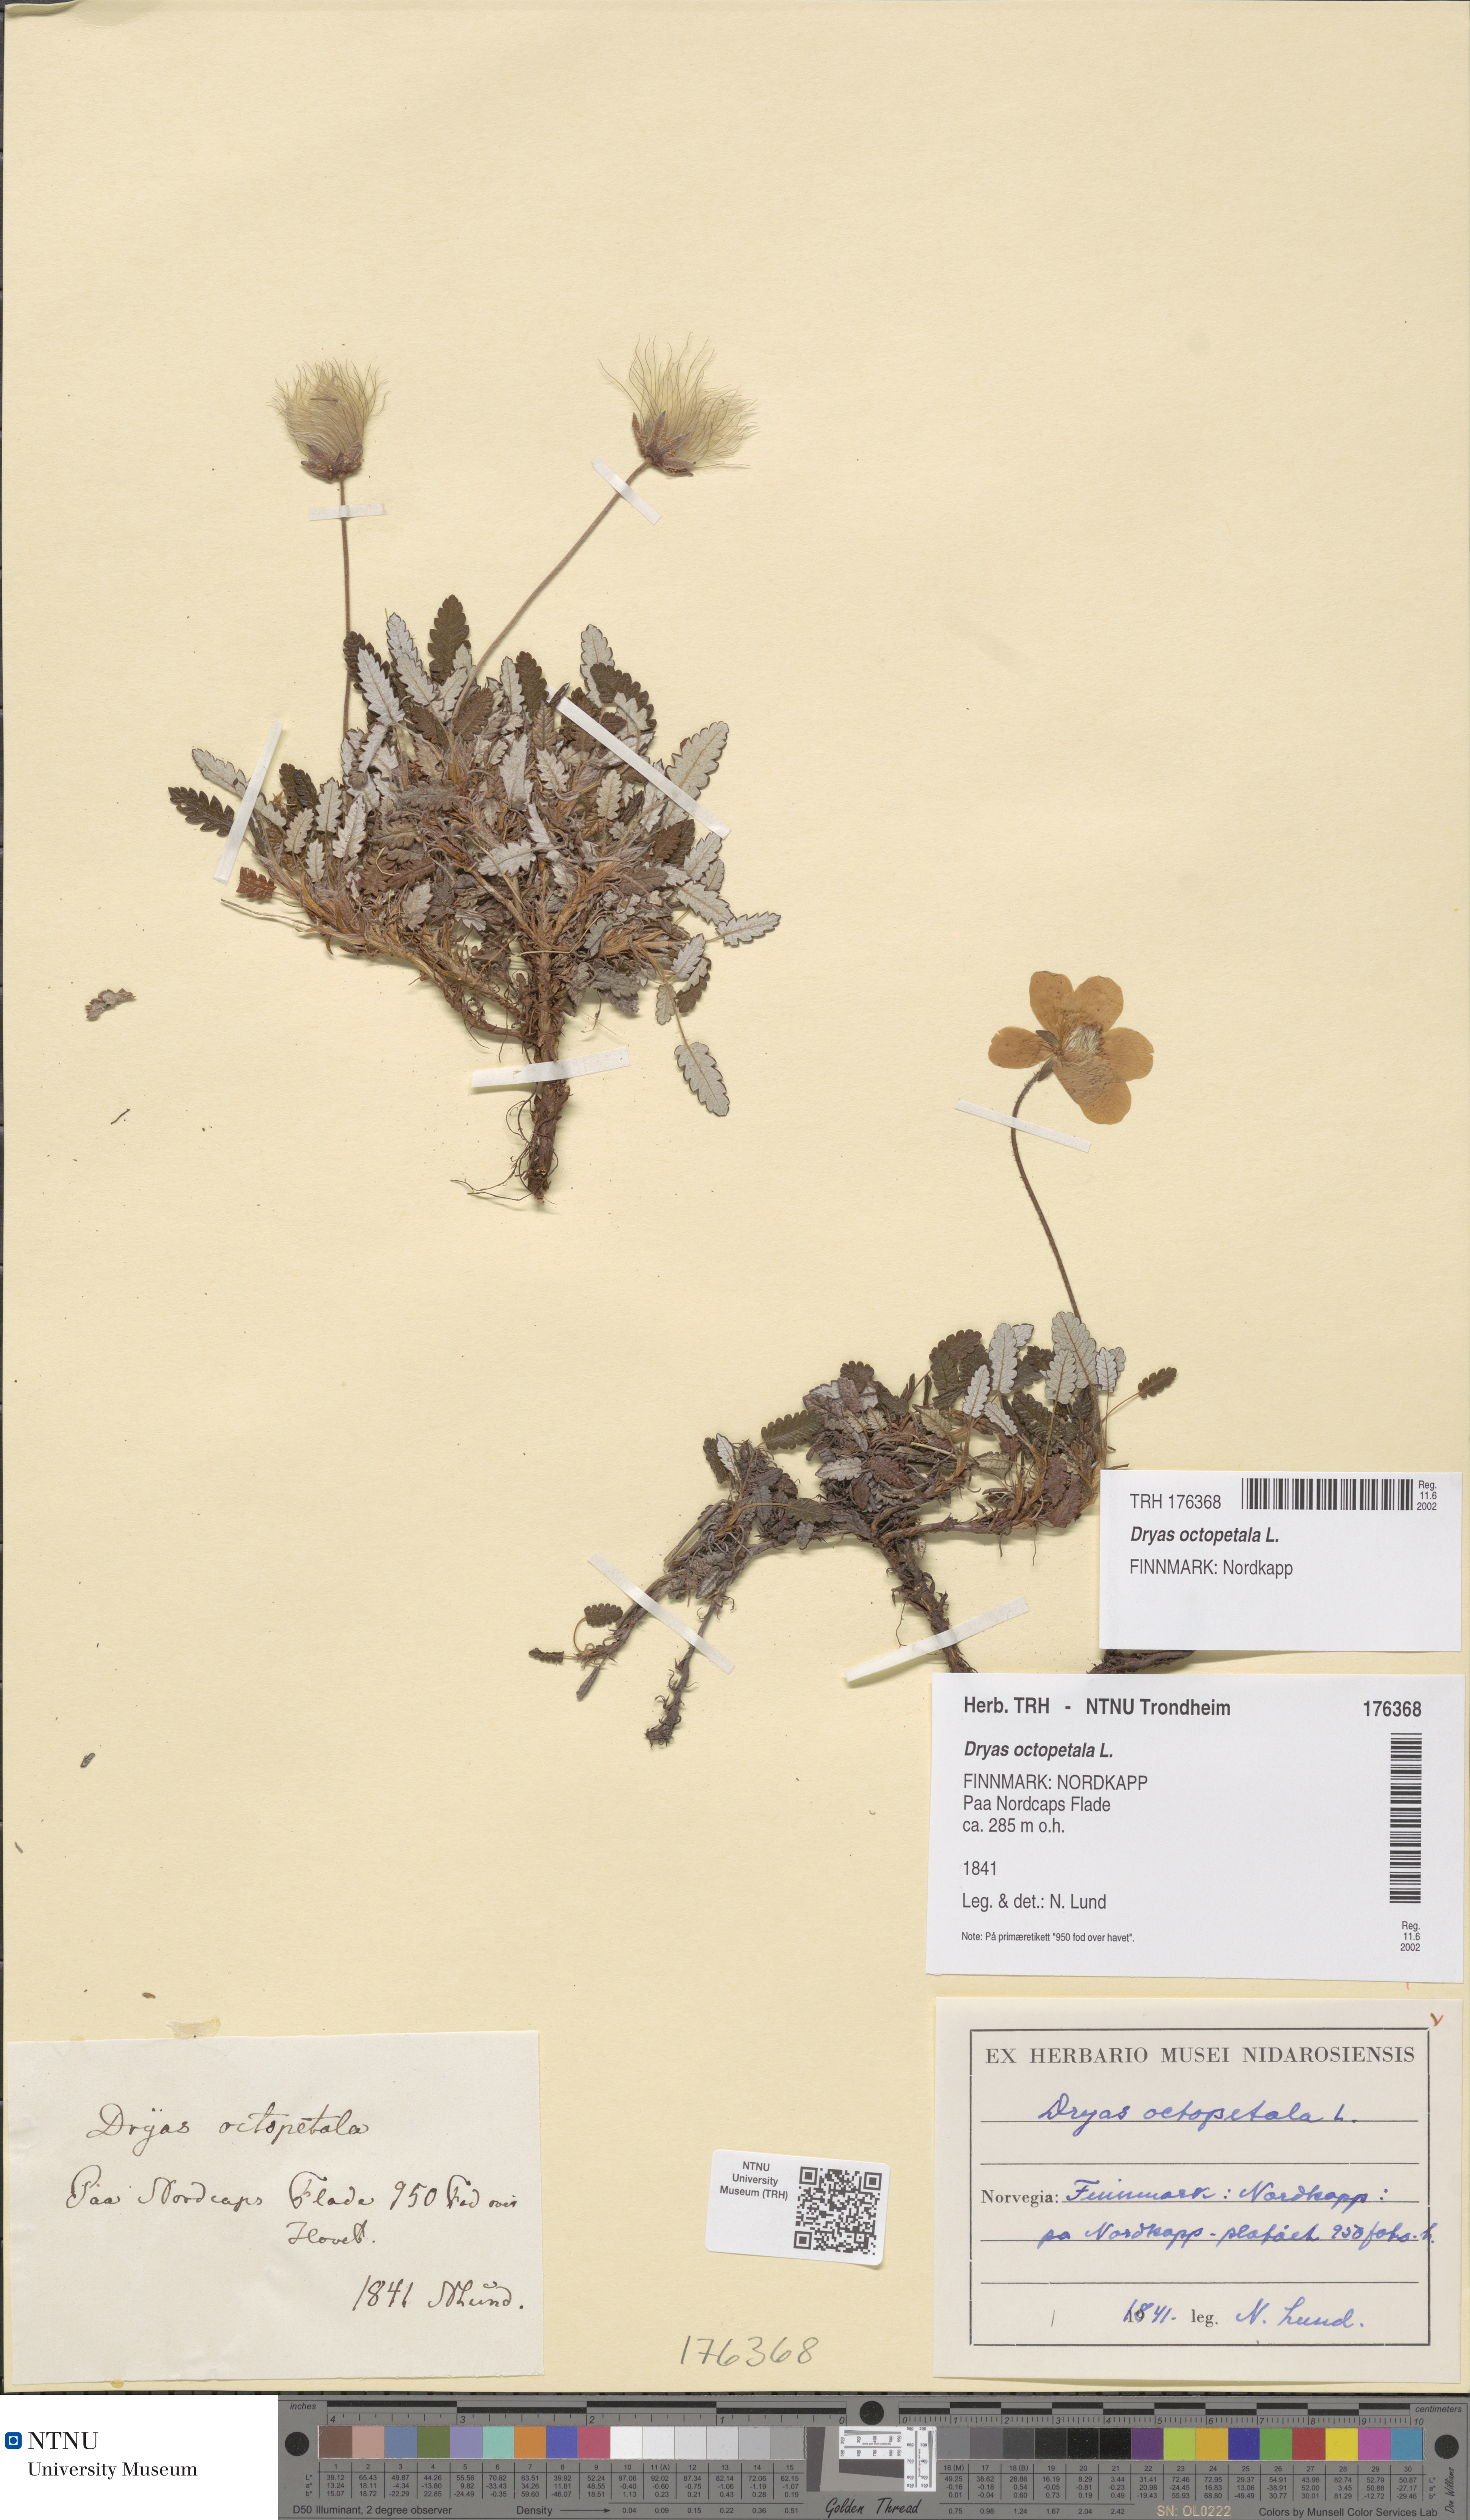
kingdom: Plantae
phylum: Tracheophyta
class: Magnoliopsida
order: Rosales
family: Rosaceae
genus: Dryas
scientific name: Dryas octopetala
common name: Eight-petal mountain-avens
